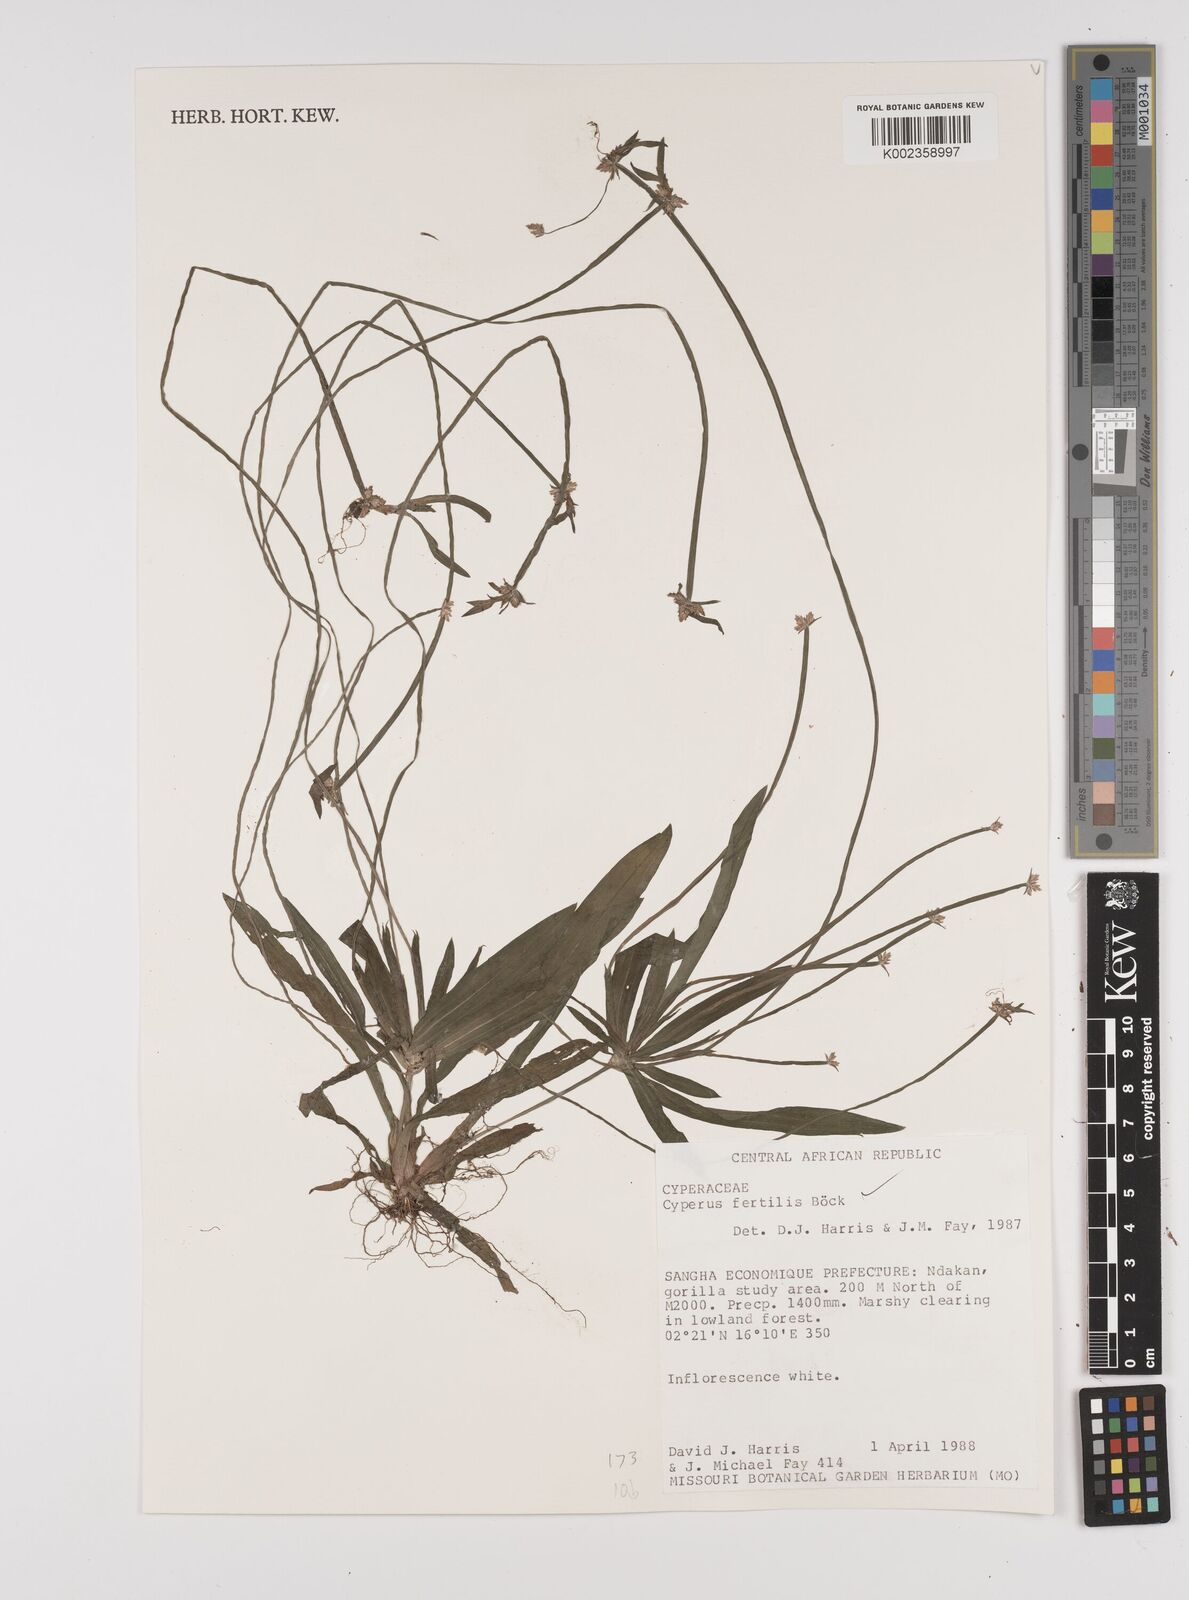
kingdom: Plantae
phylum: Tracheophyta
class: Liliopsida
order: Poales
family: Cyperaceae
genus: Cyperus
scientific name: Cyperus fertilis
